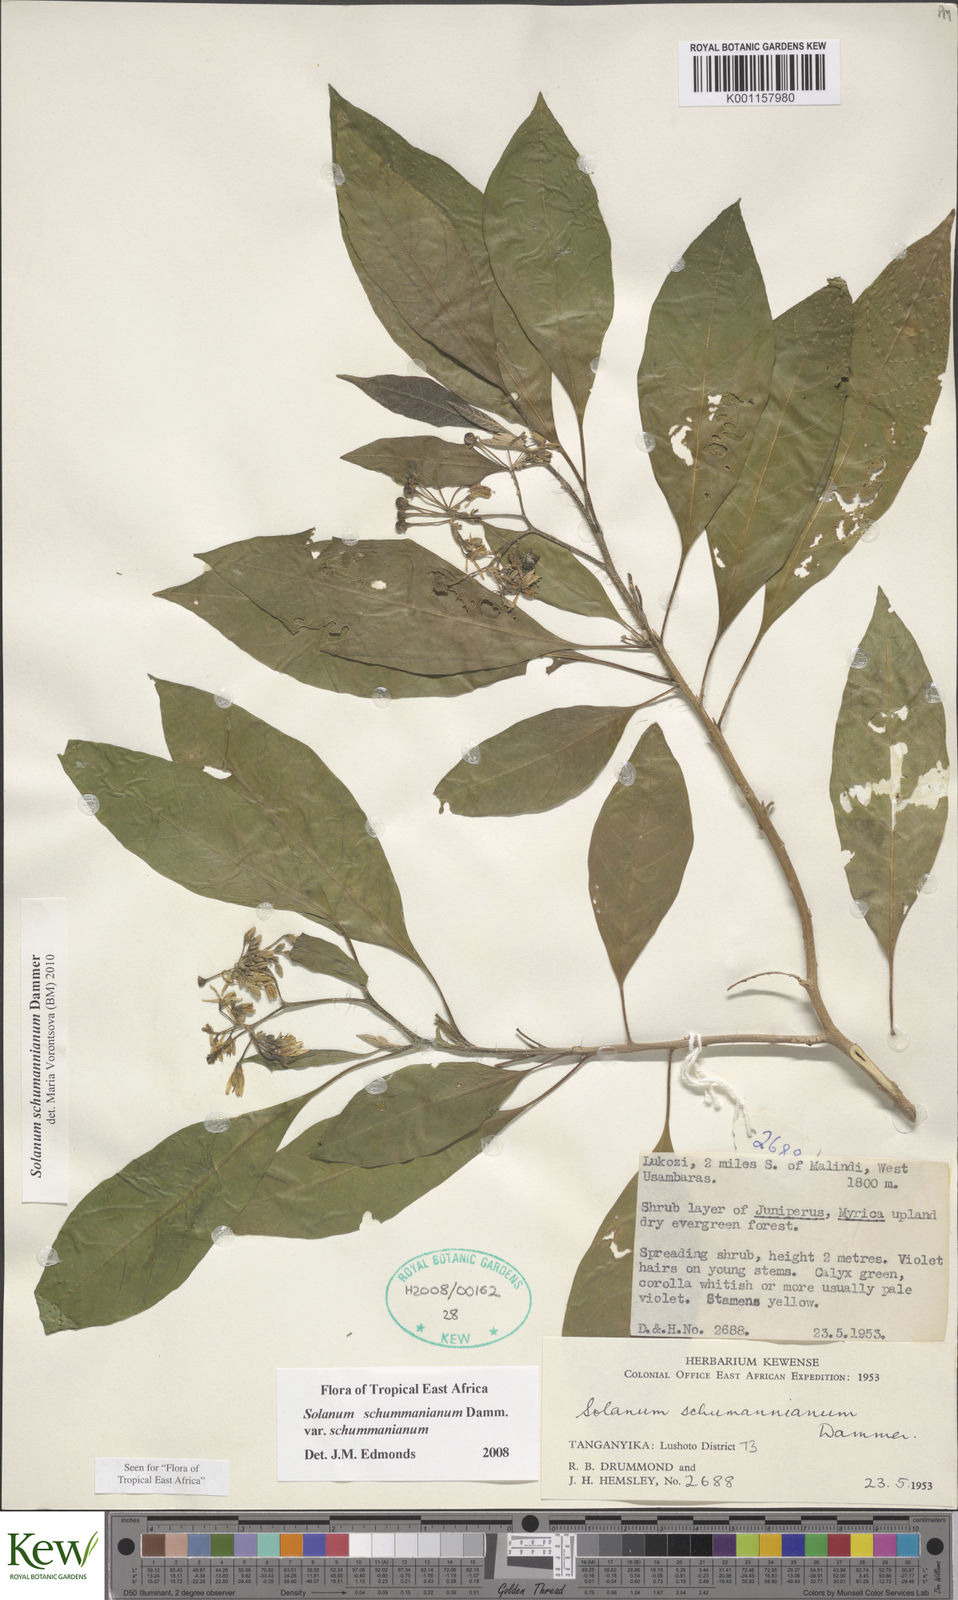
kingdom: Plantae
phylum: Tracheophyta
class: Magnoliopsida
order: Solanales
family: Solanaceae
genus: Solanum
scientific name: Solanum schumannianum
